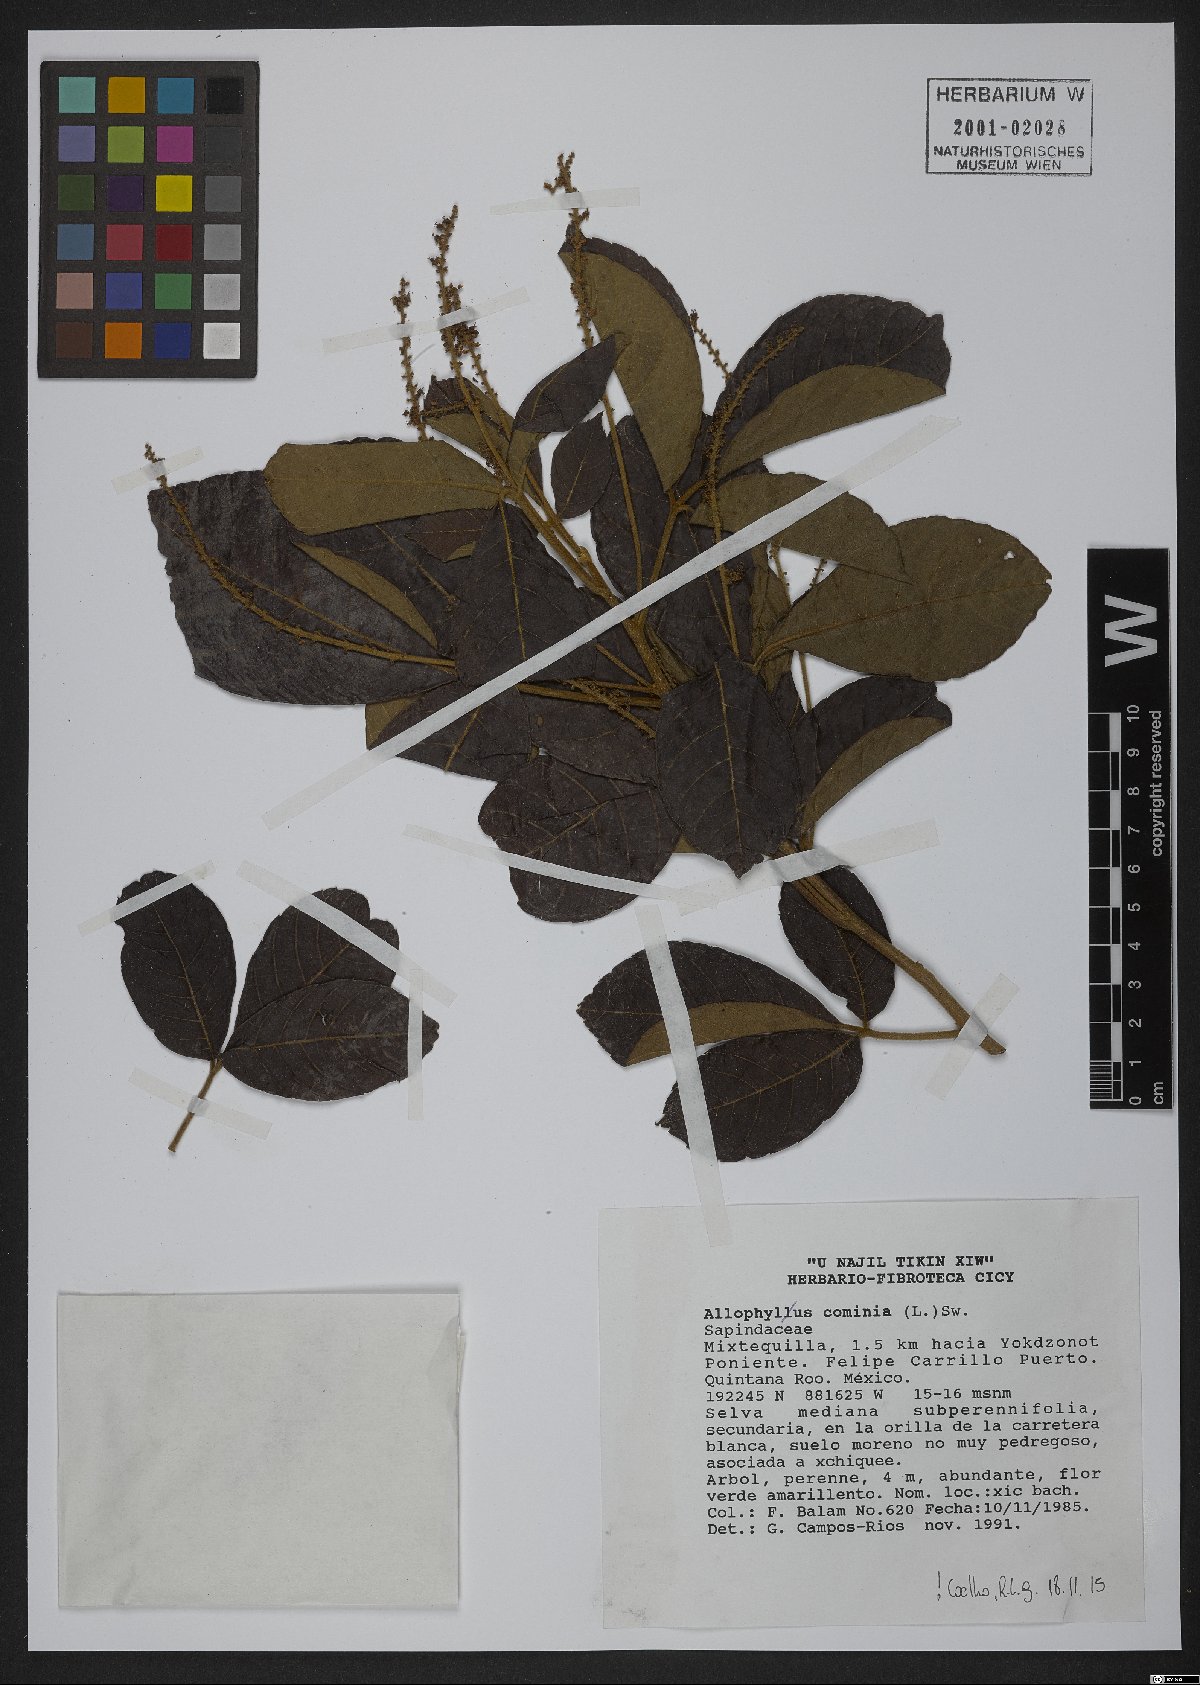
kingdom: Plantae
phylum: Tracheophyta
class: Magnoliopsida
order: Sapindales
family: Sapindaceae
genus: Allophylus
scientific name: Allophylus cominia
